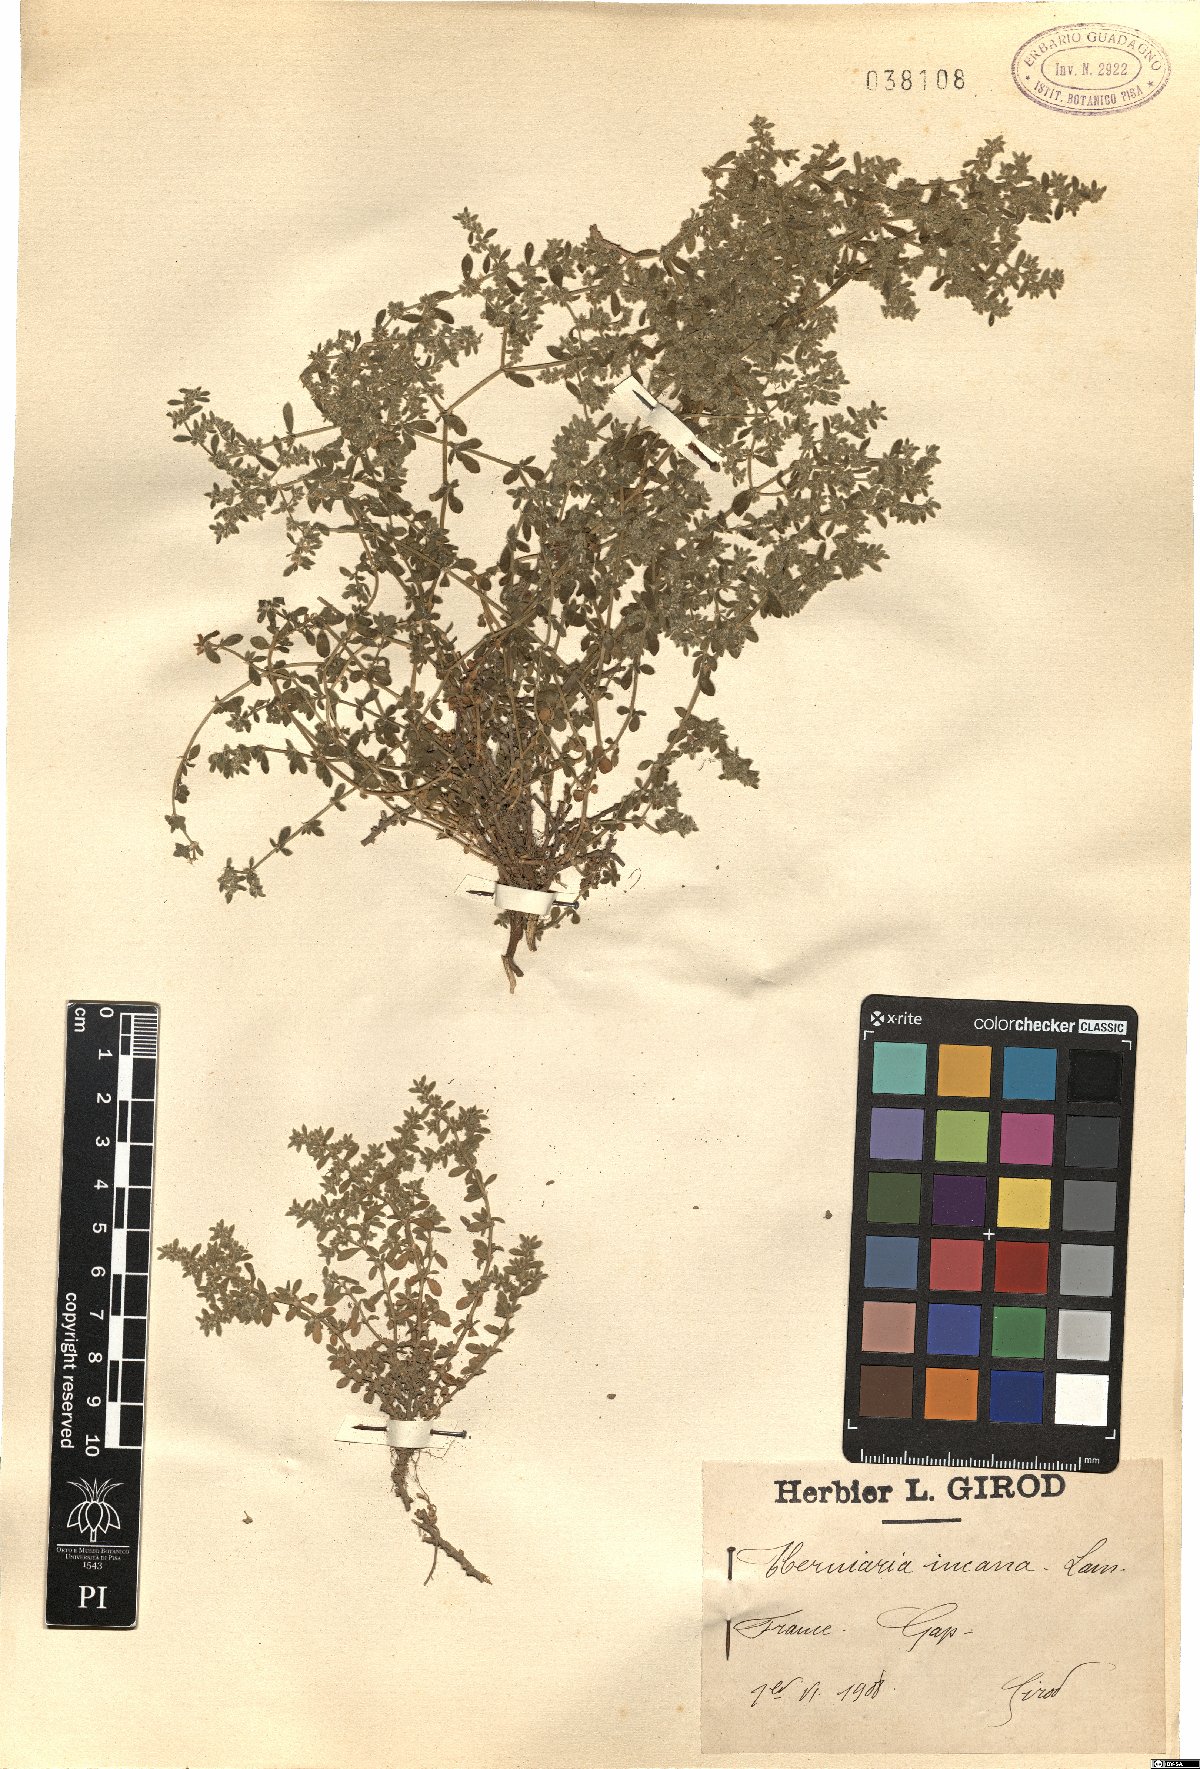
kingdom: Plantae
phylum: Tracheophyta
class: Magnoliopsida
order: Caryophyllales
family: Caryophyllaceae
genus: Herniaria
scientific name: Herniaria incana
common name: Gray rupturewort
